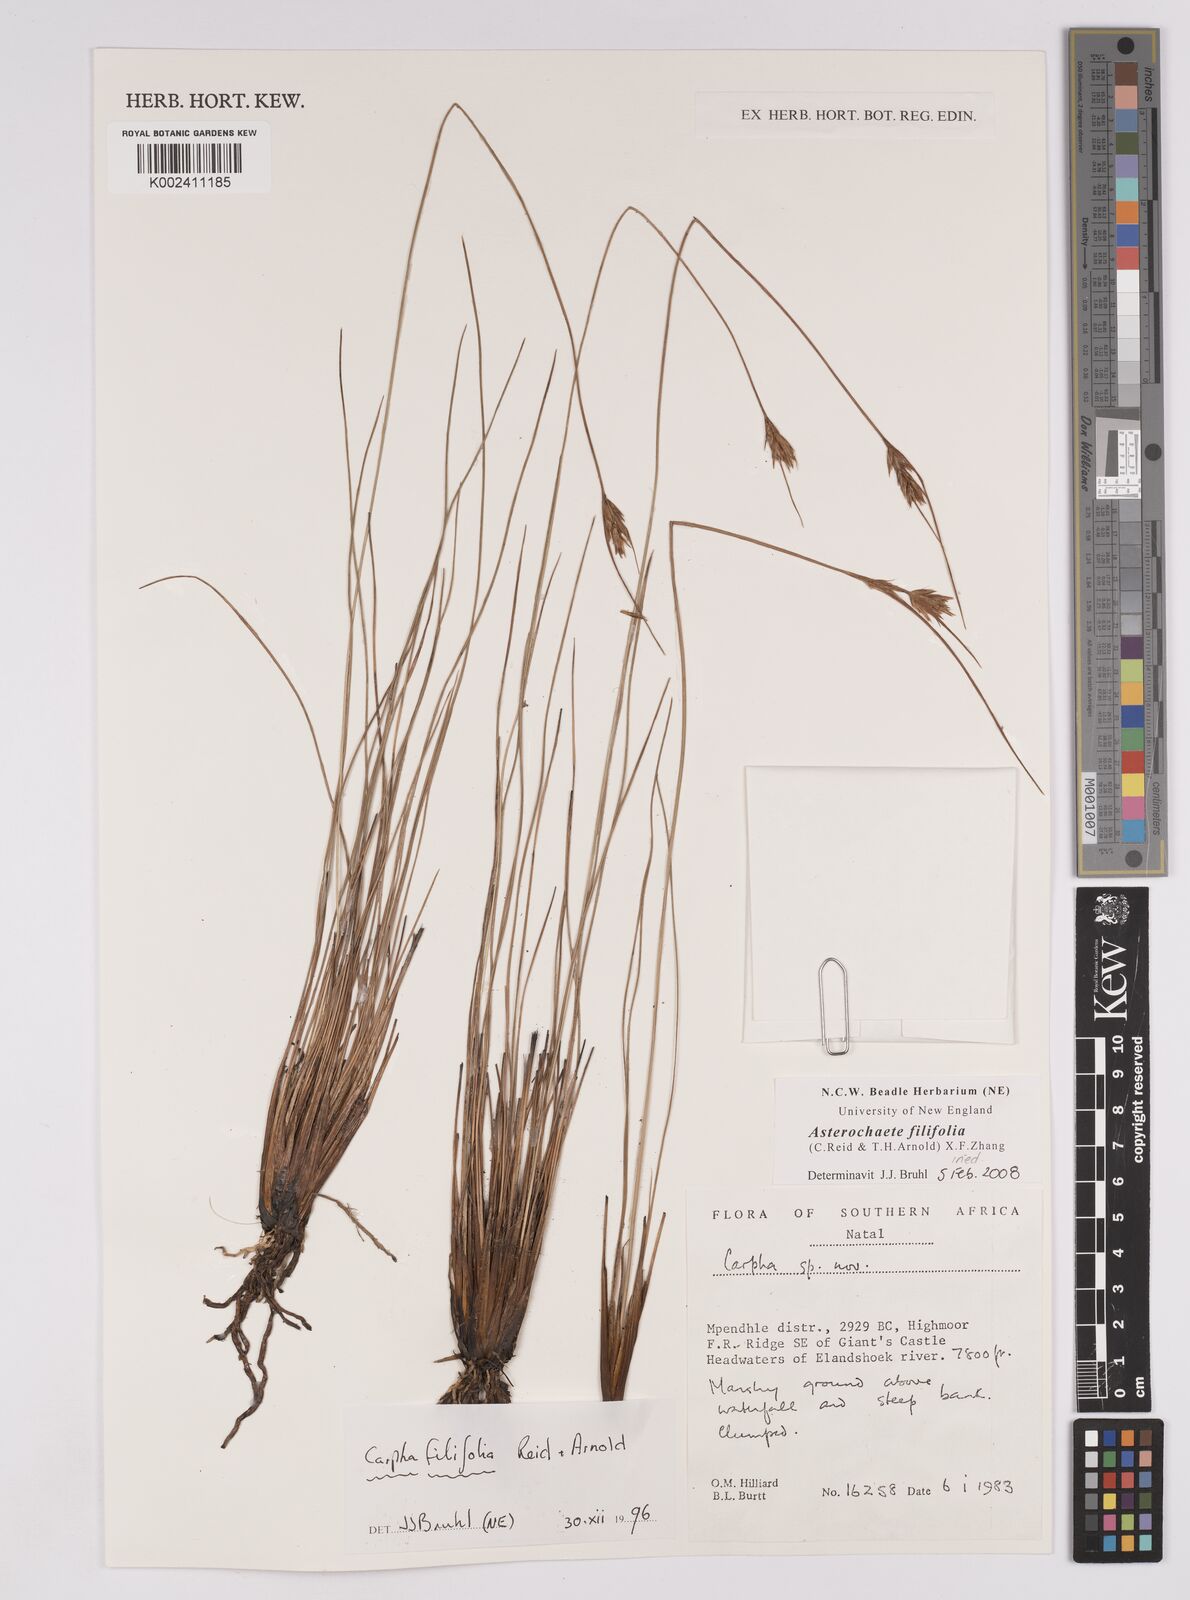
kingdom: Plantae
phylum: Tracheophyta
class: Liliopsida
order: Poales
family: Cyperaceae
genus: Carpha
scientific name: Carpha filifolia
